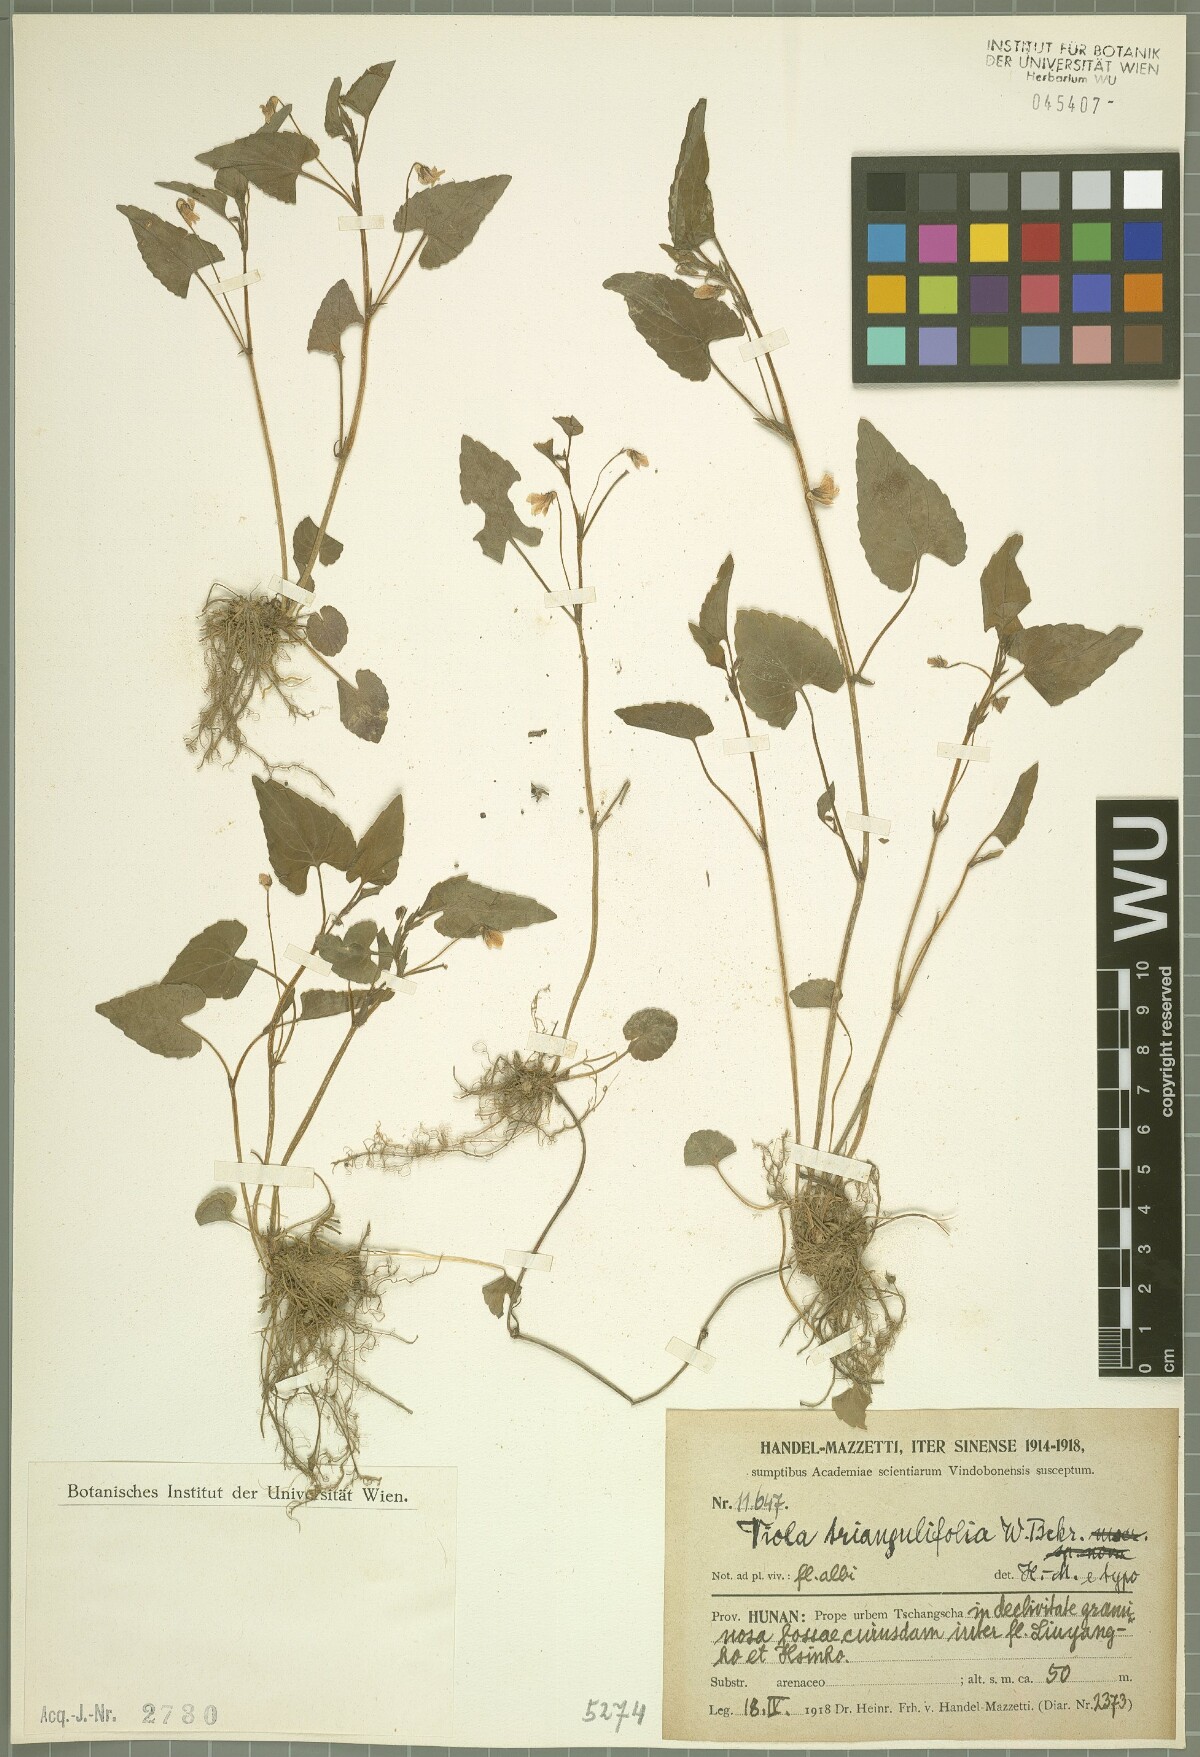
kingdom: Plantae
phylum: Tracheophyta
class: Magnoliopsida
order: Malpighiales
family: Violaceae
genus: Viola
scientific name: Viola triangulifolia
